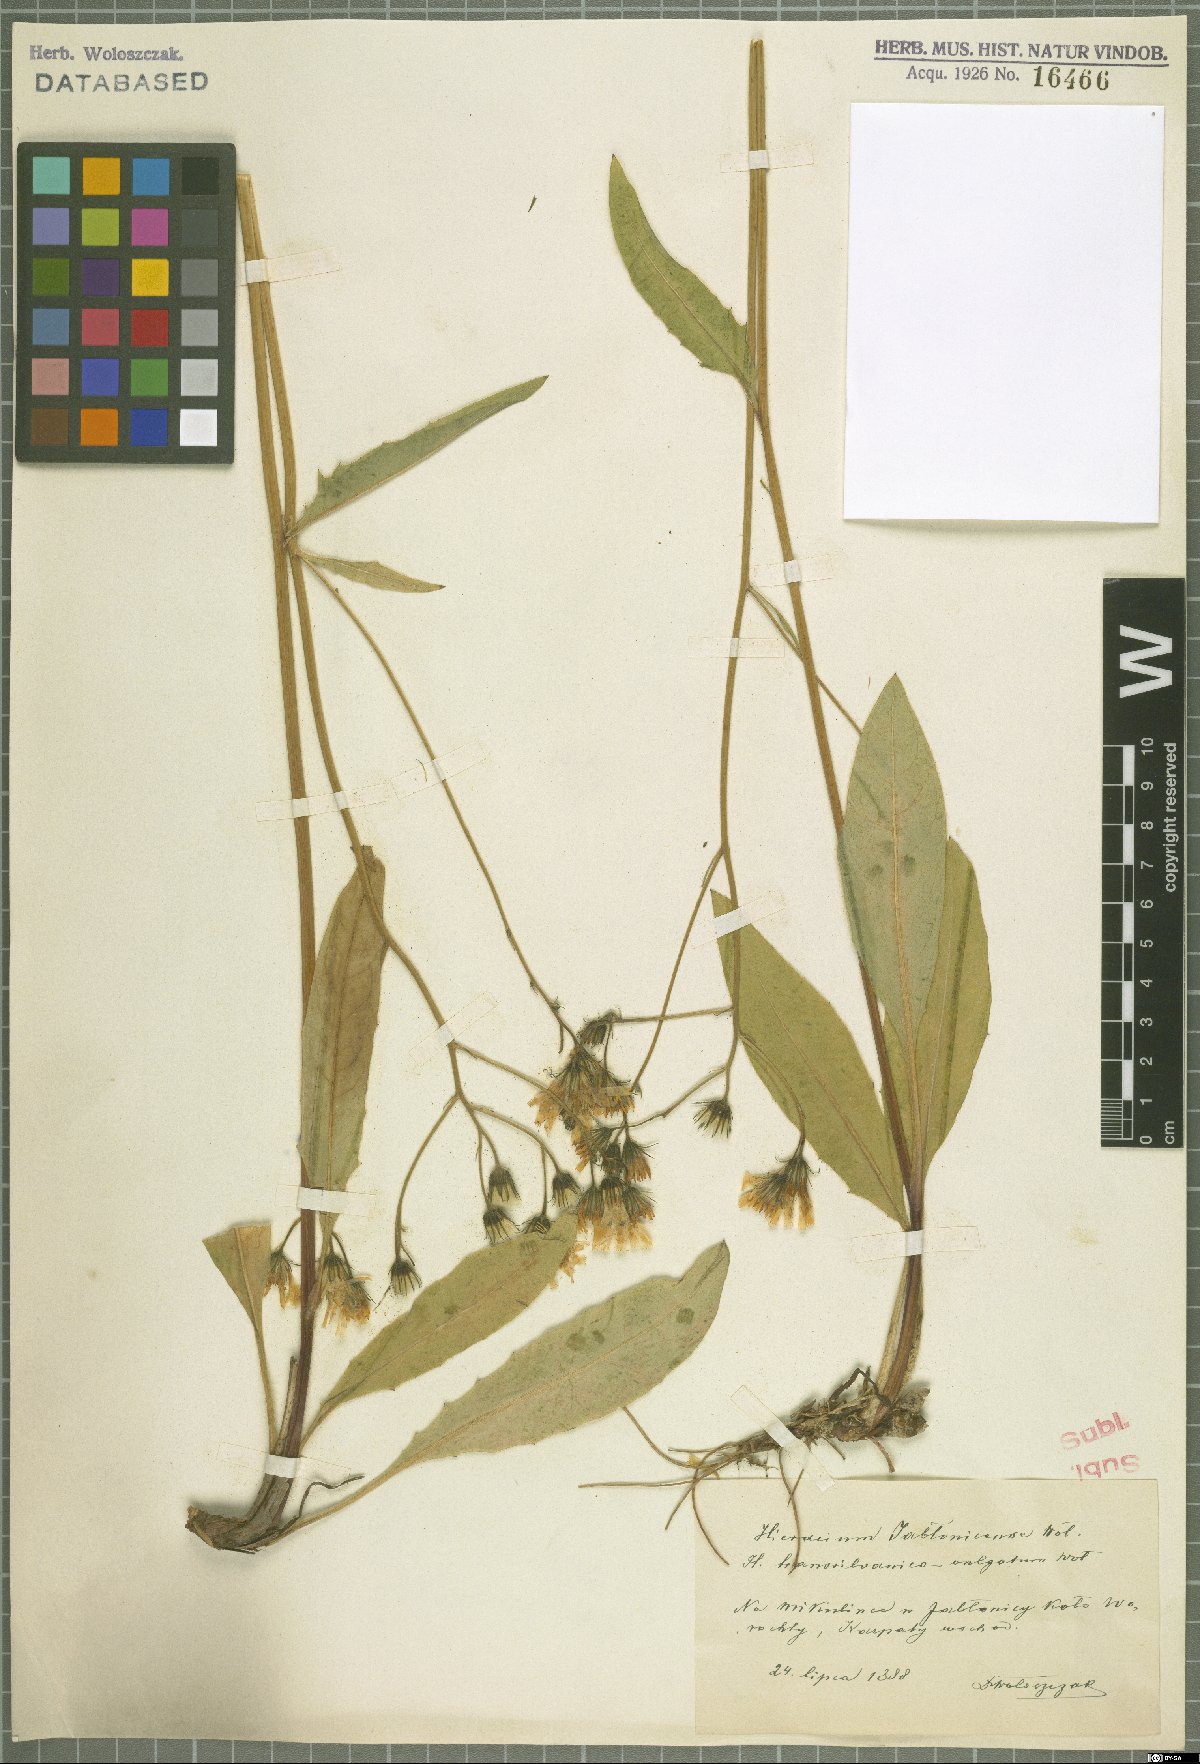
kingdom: Plantae
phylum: Tracheophyta
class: Magnoliopsida
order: Asterales
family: Asteraceae
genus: Hieracium
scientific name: Hieracium jablonicense
